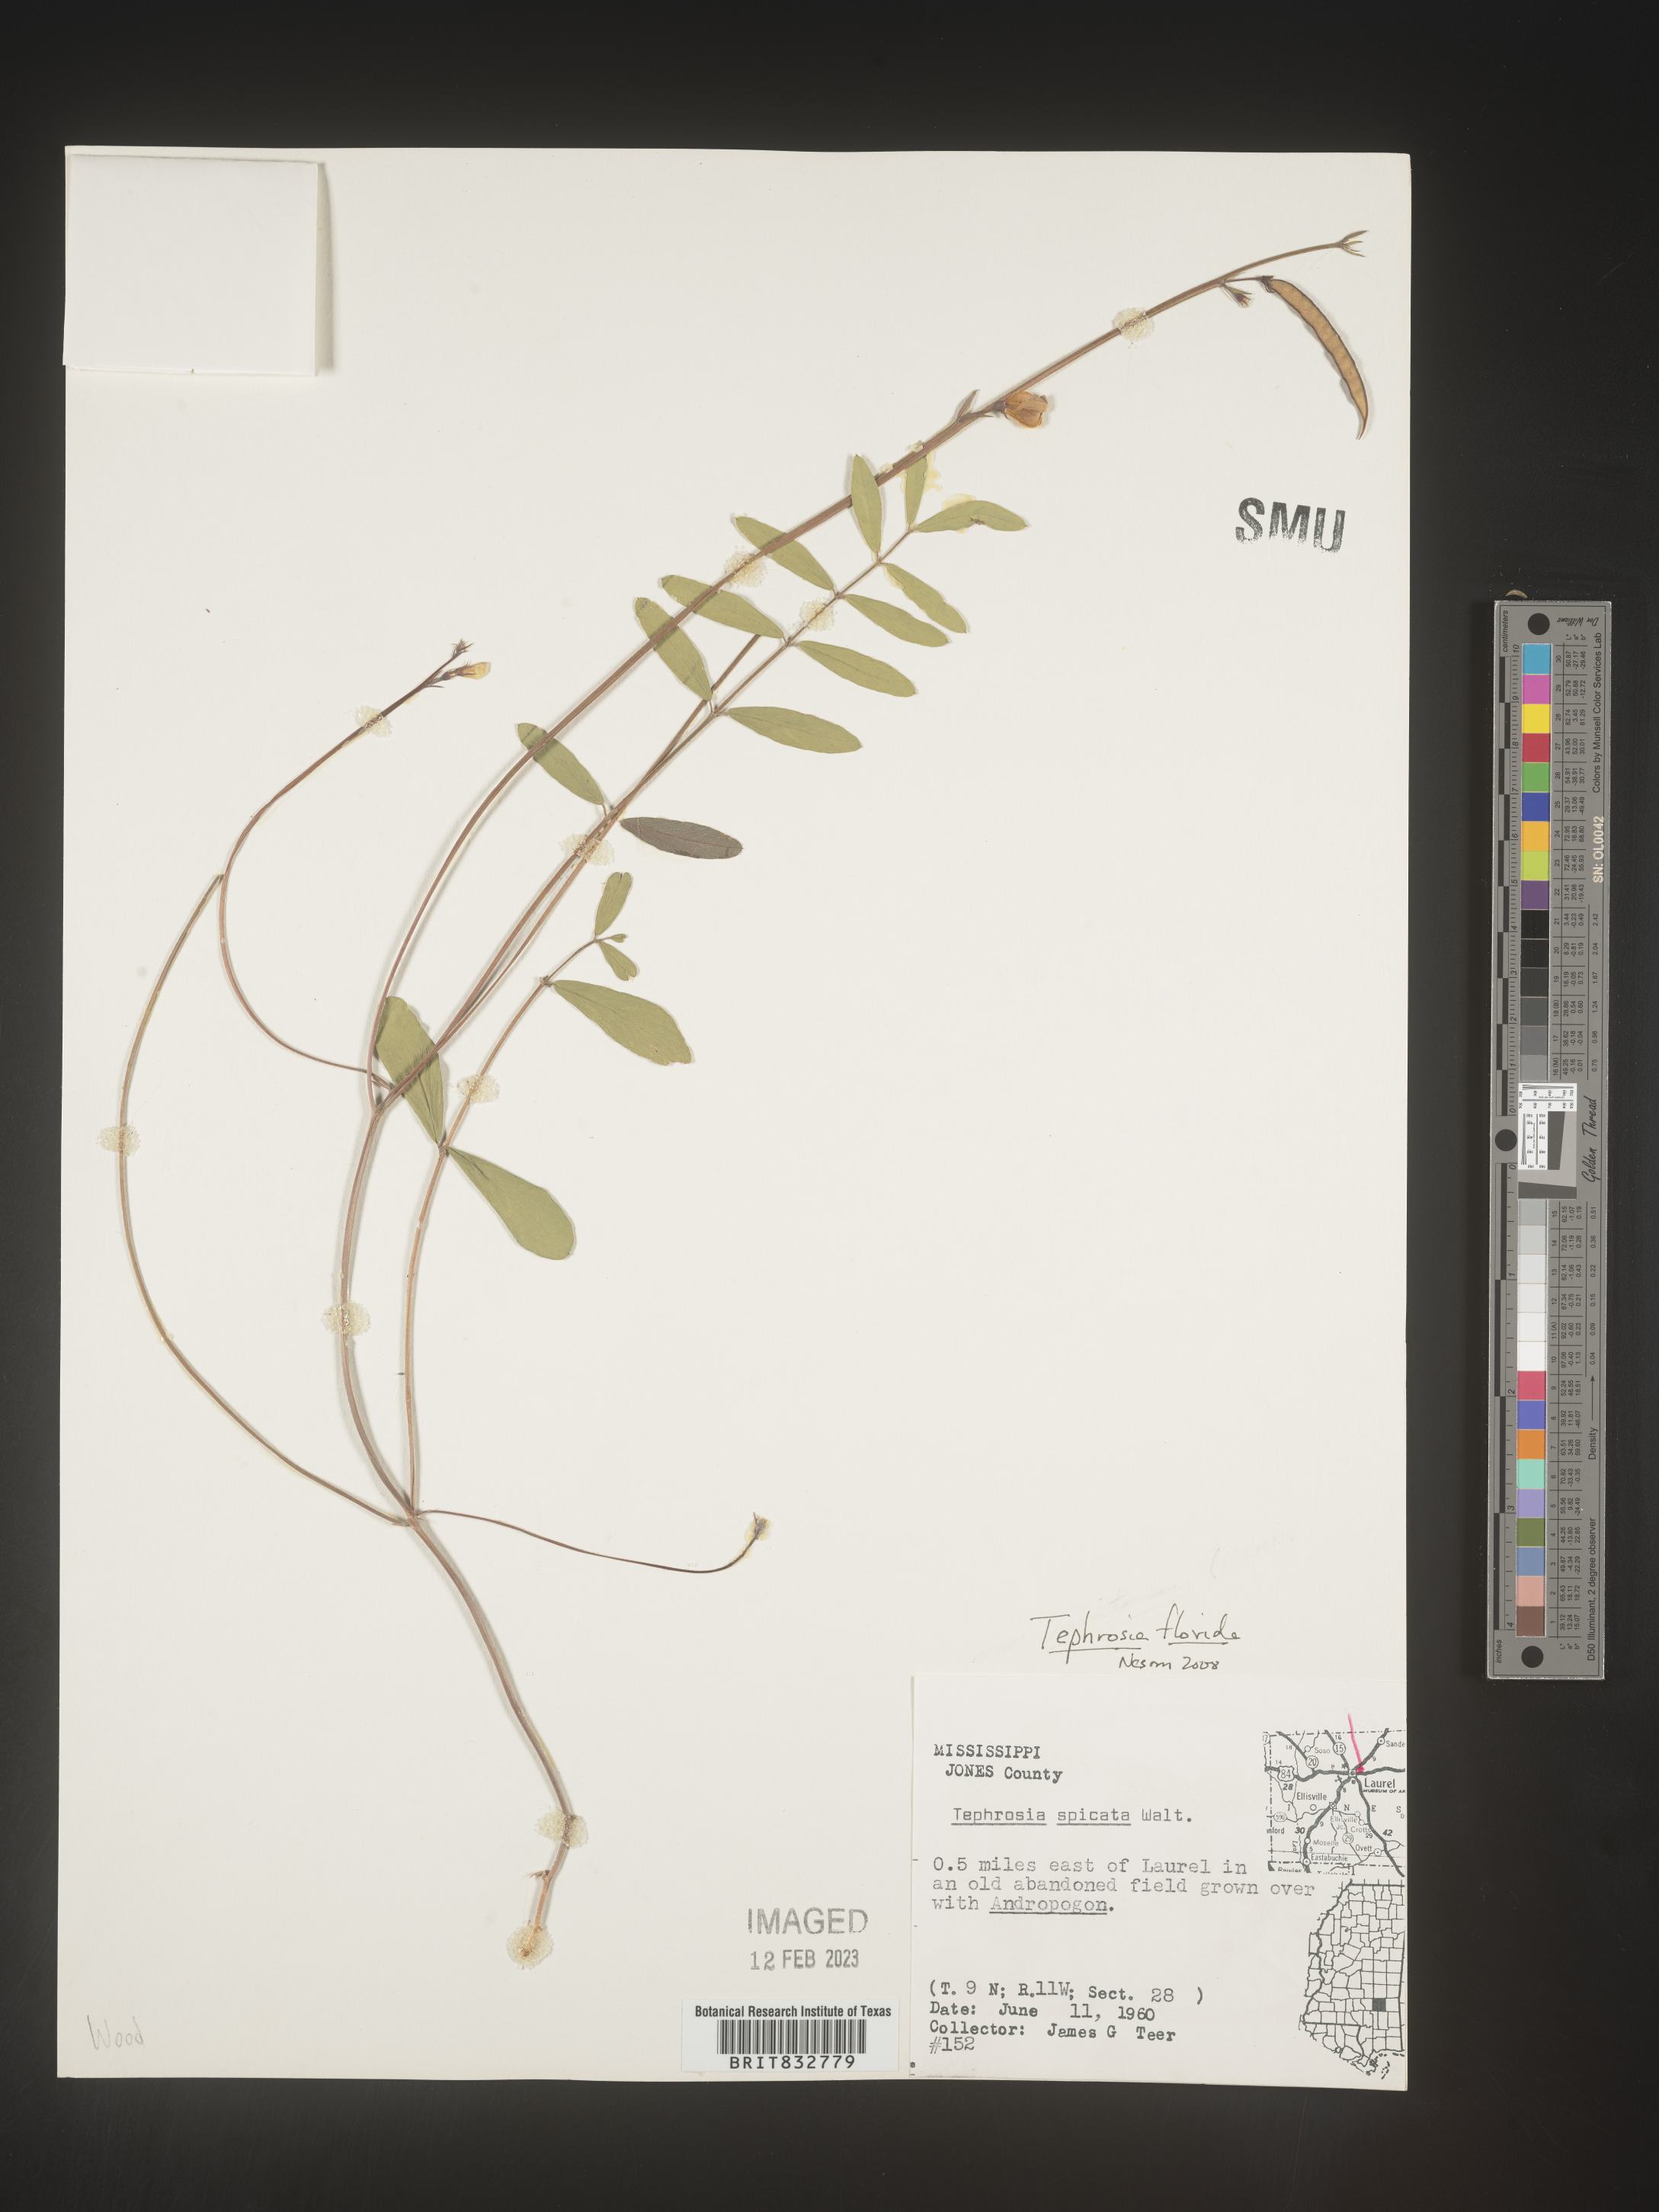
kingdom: Plantae
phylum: Tracheophyta
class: Magnoliopsida
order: Fabales
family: Fabaceae
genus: Tephrosia
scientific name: Tephrosia florida
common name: Florida hoary-pea
